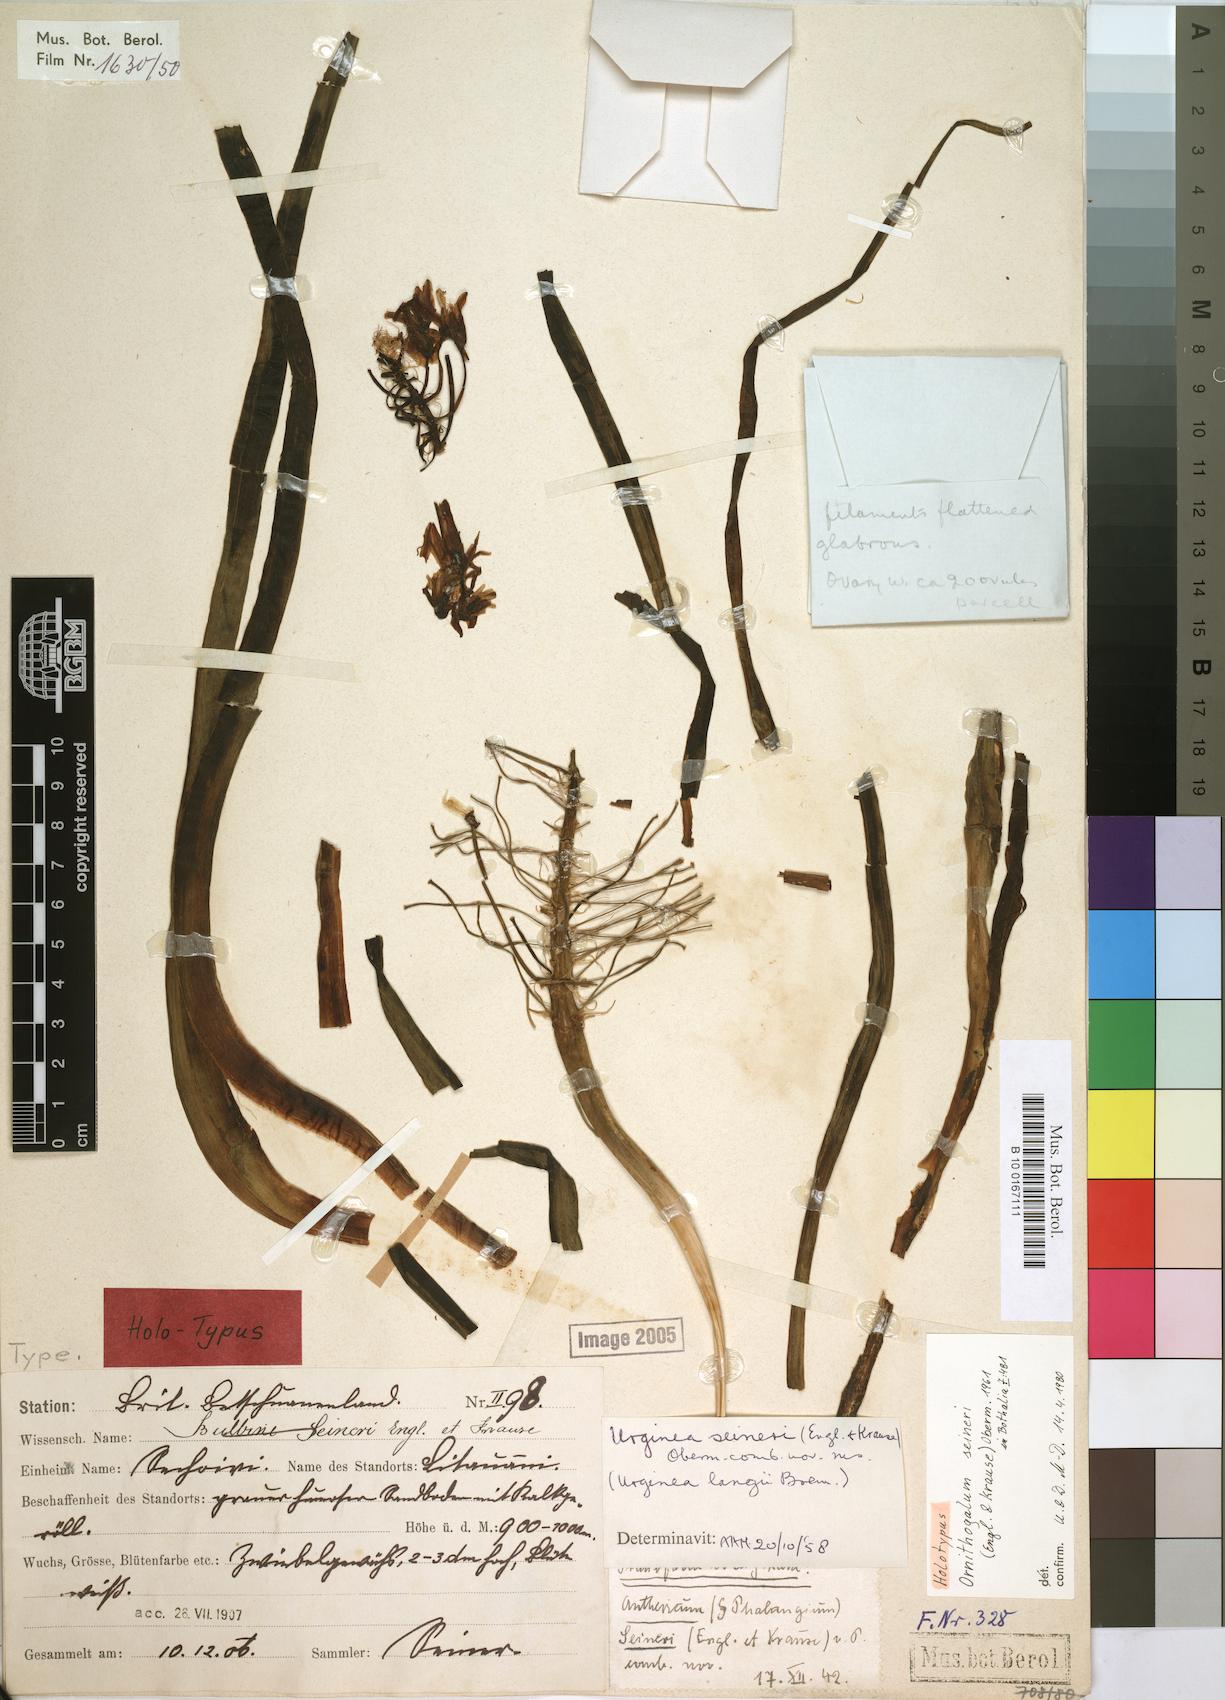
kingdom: Plantae
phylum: Tracheophyta
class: Liliopsida
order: Asparagales
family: Asparagaceae
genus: Albuca
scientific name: Albuca seineri
